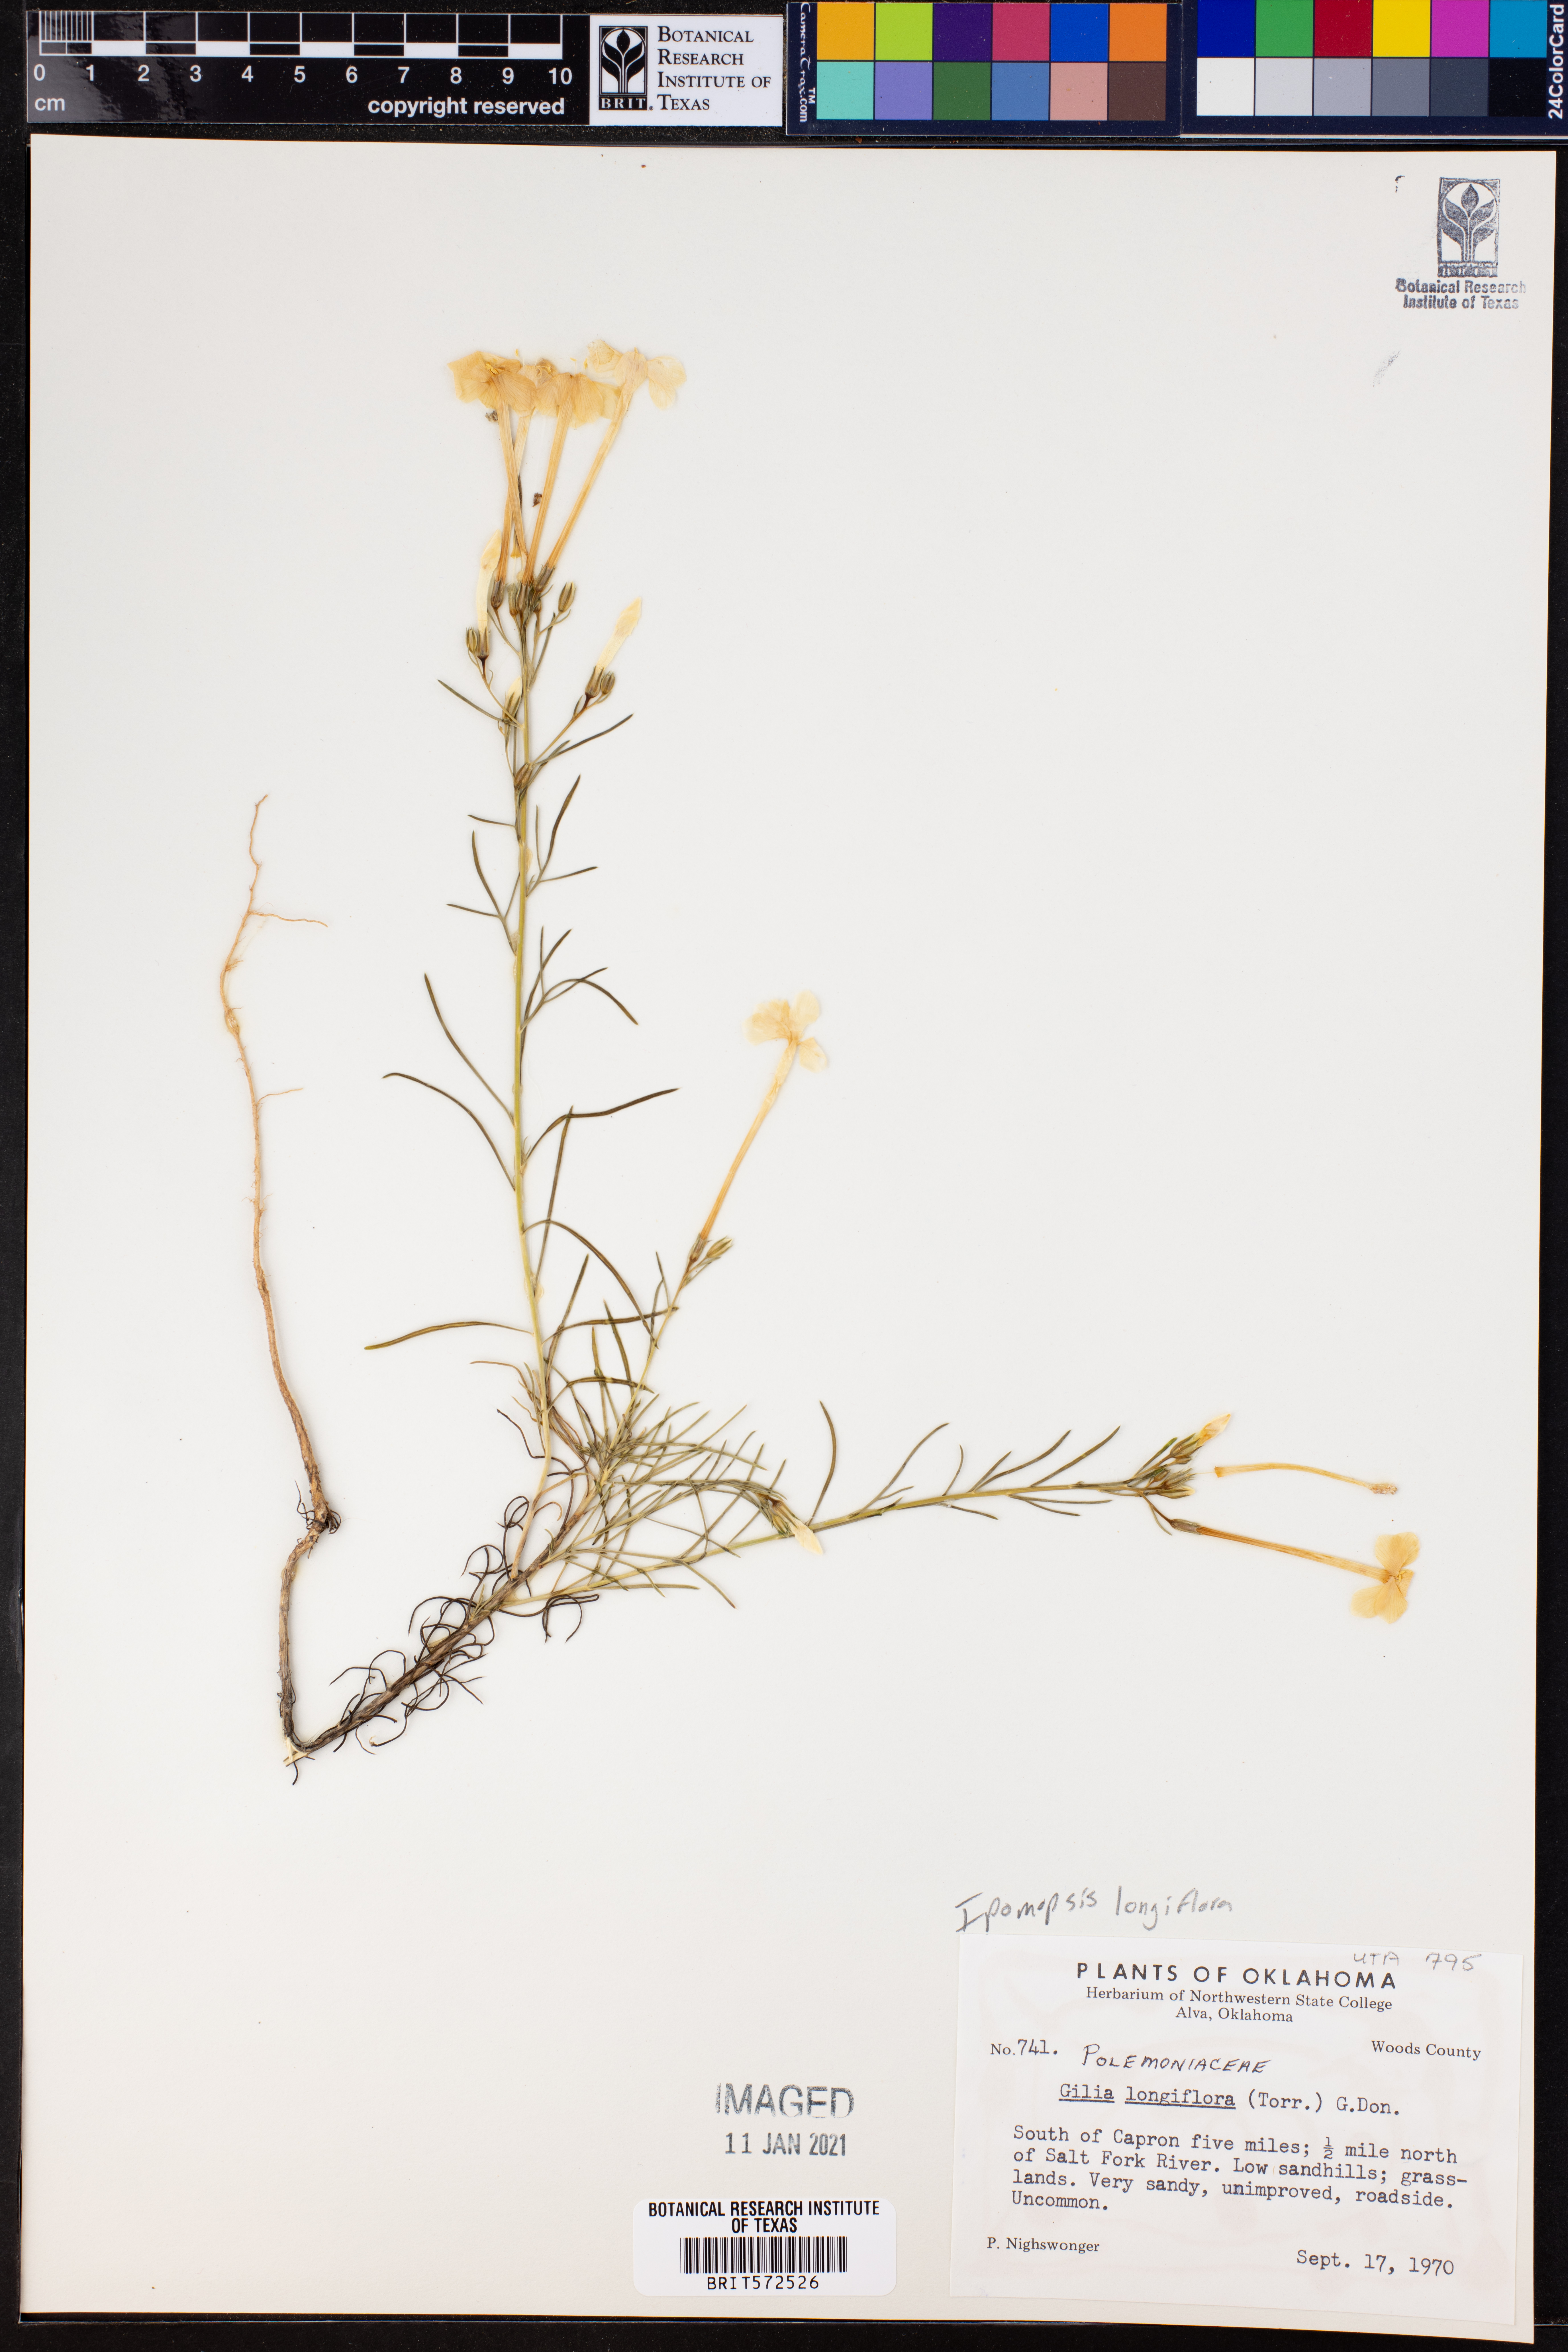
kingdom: Plantae
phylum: Tracheophyta
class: Magnoliopsida
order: Ericales
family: Polemoniaceae
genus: Ipomopsis
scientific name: Ipomopsis longiflora
